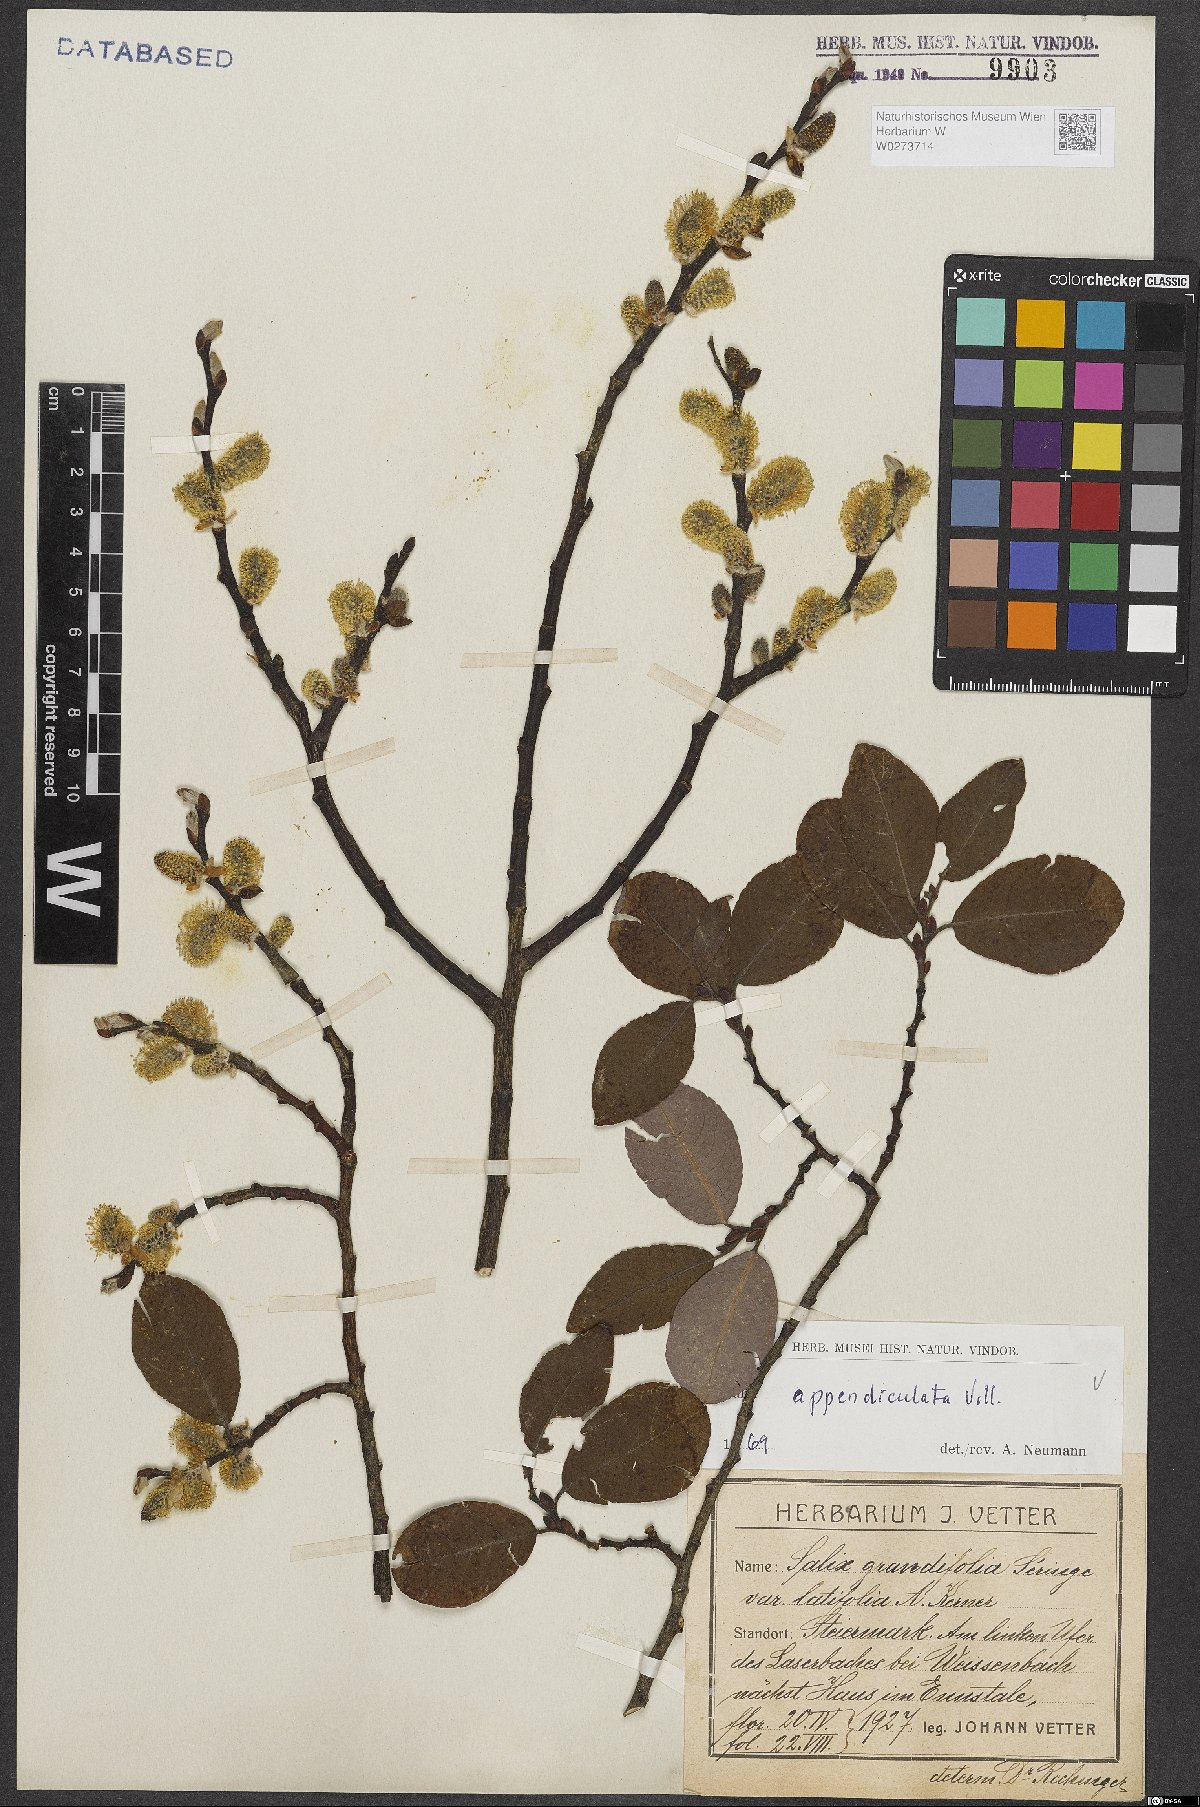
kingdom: Plantae
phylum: Tracheophyta
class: Magnoliopsida
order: Malpighiales
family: Salicaceae
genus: Salix
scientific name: Salix appendiculata
